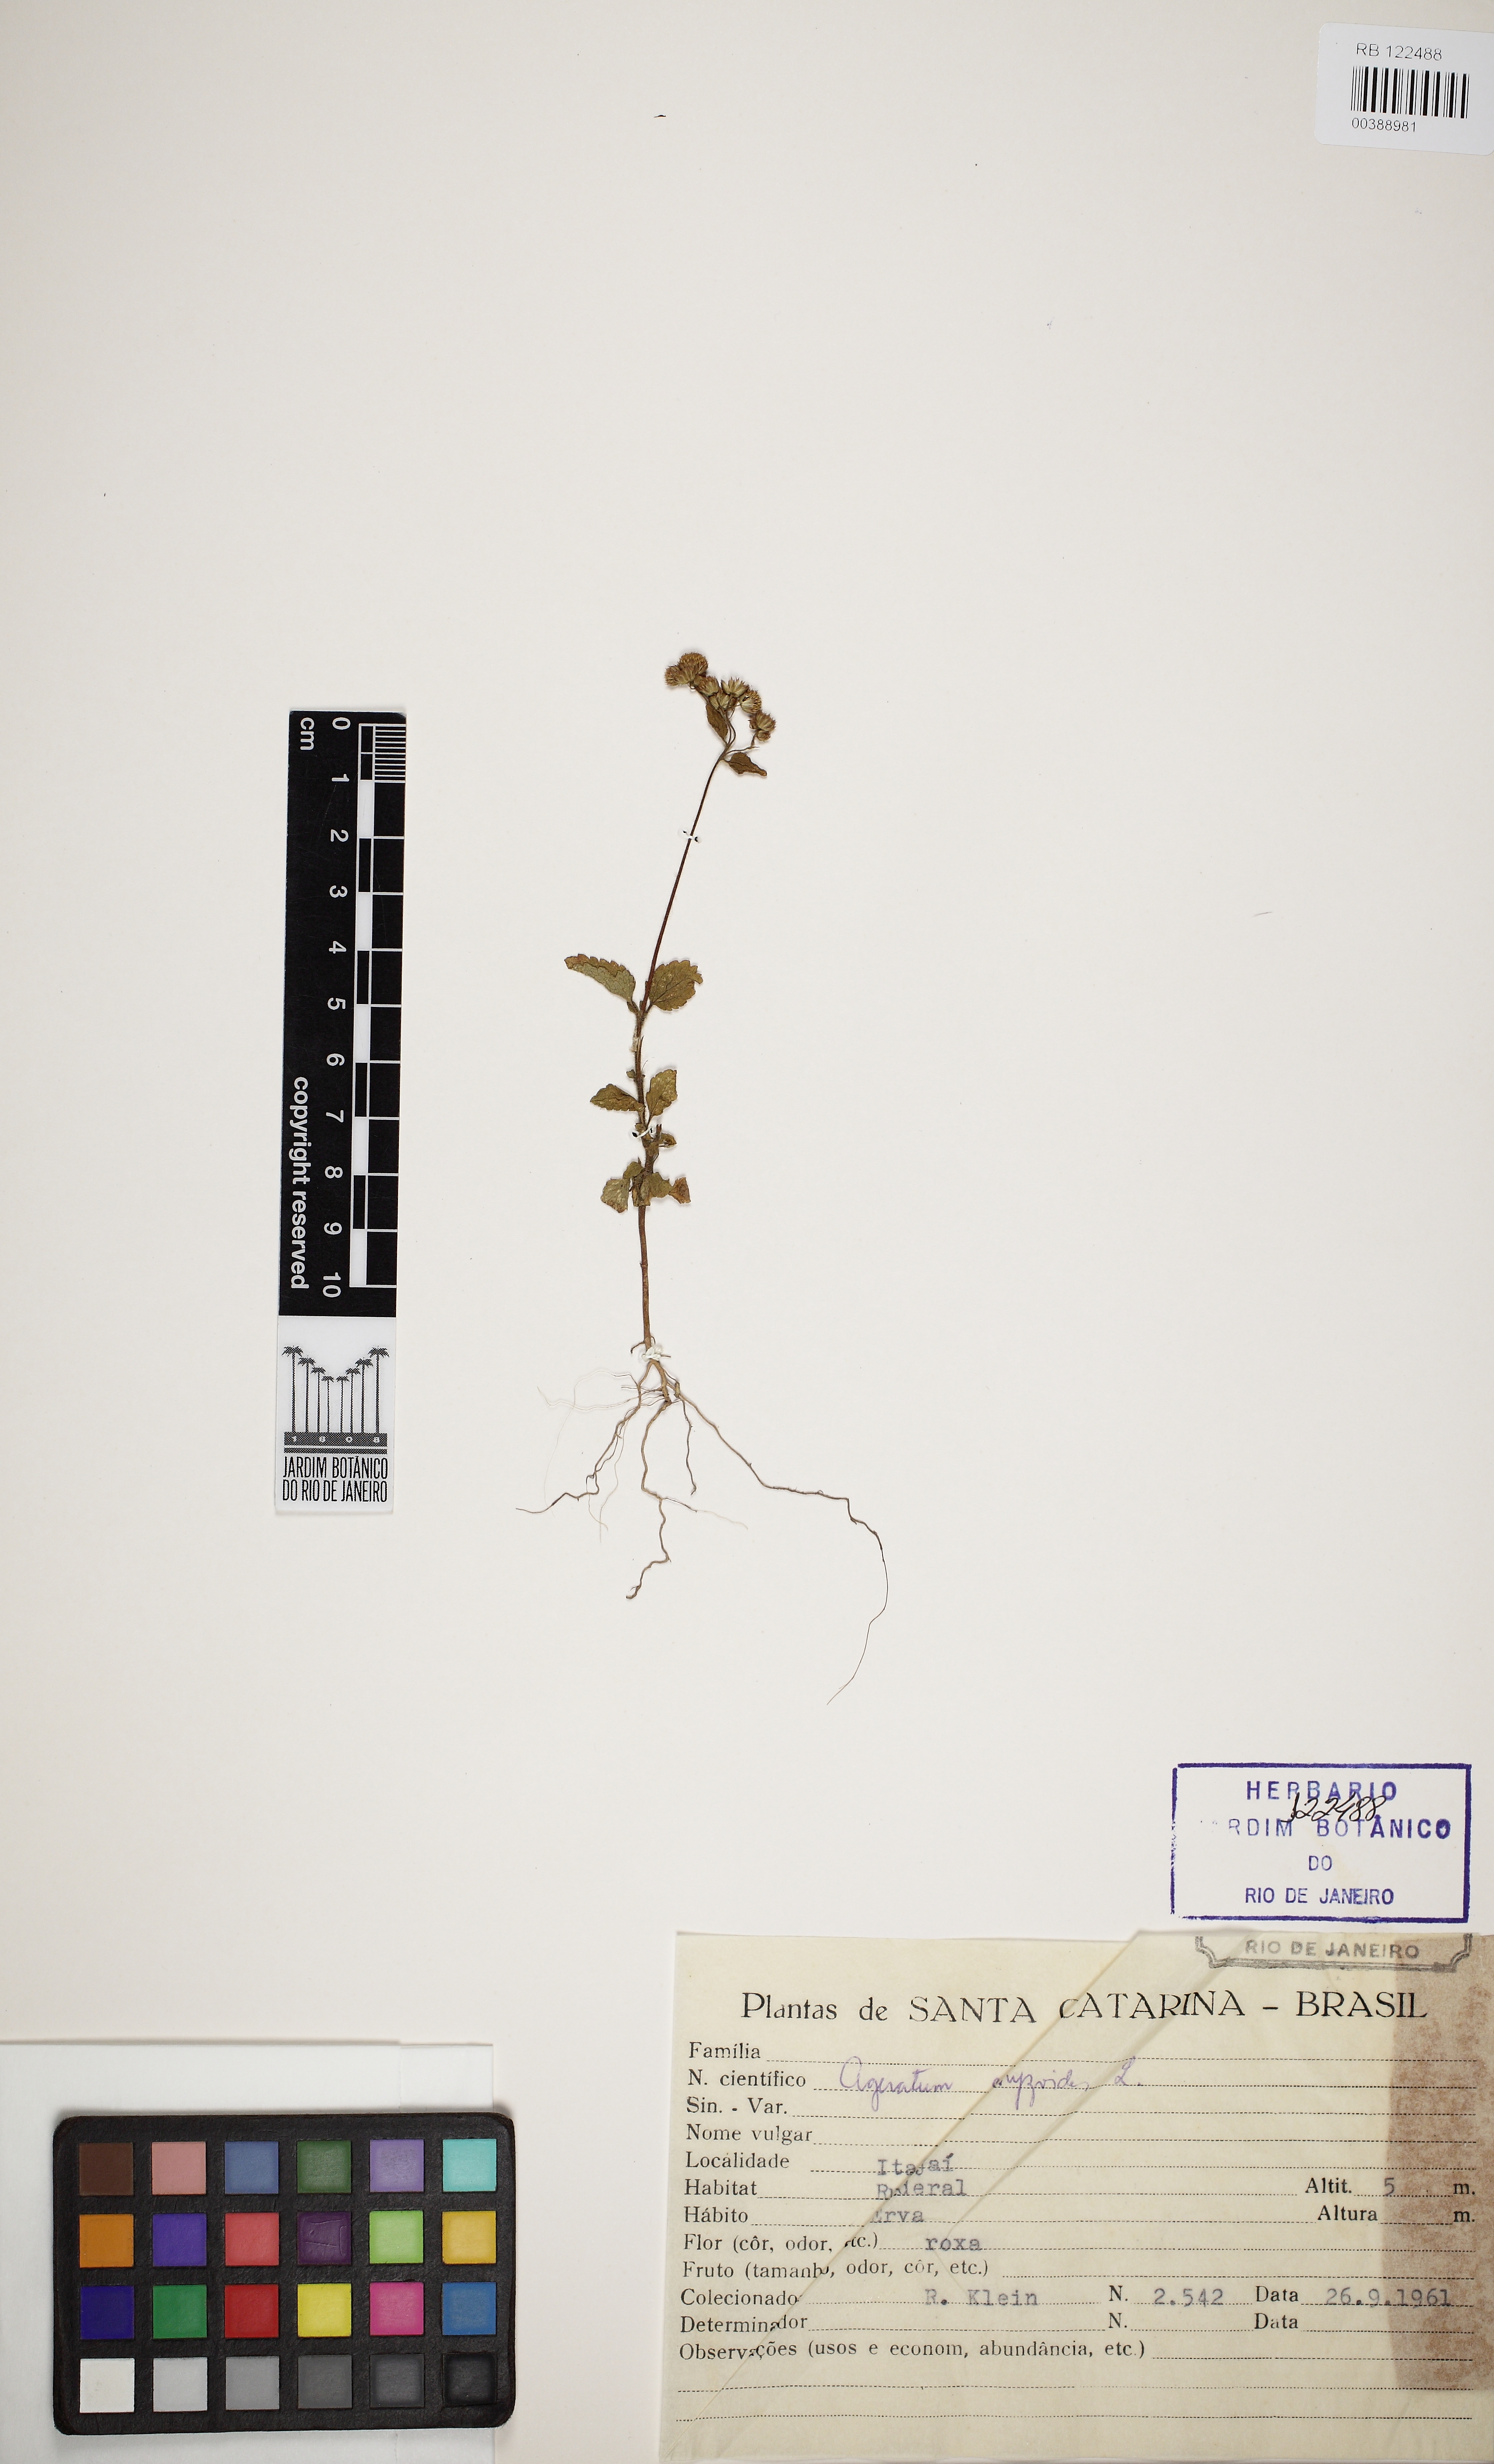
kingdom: Plantae
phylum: Tracheophyta
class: Magnoliopsida
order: Asterales
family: Asteraceae
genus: Ageratum
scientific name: Ageratum conyzoides
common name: Tropical whiteweed
